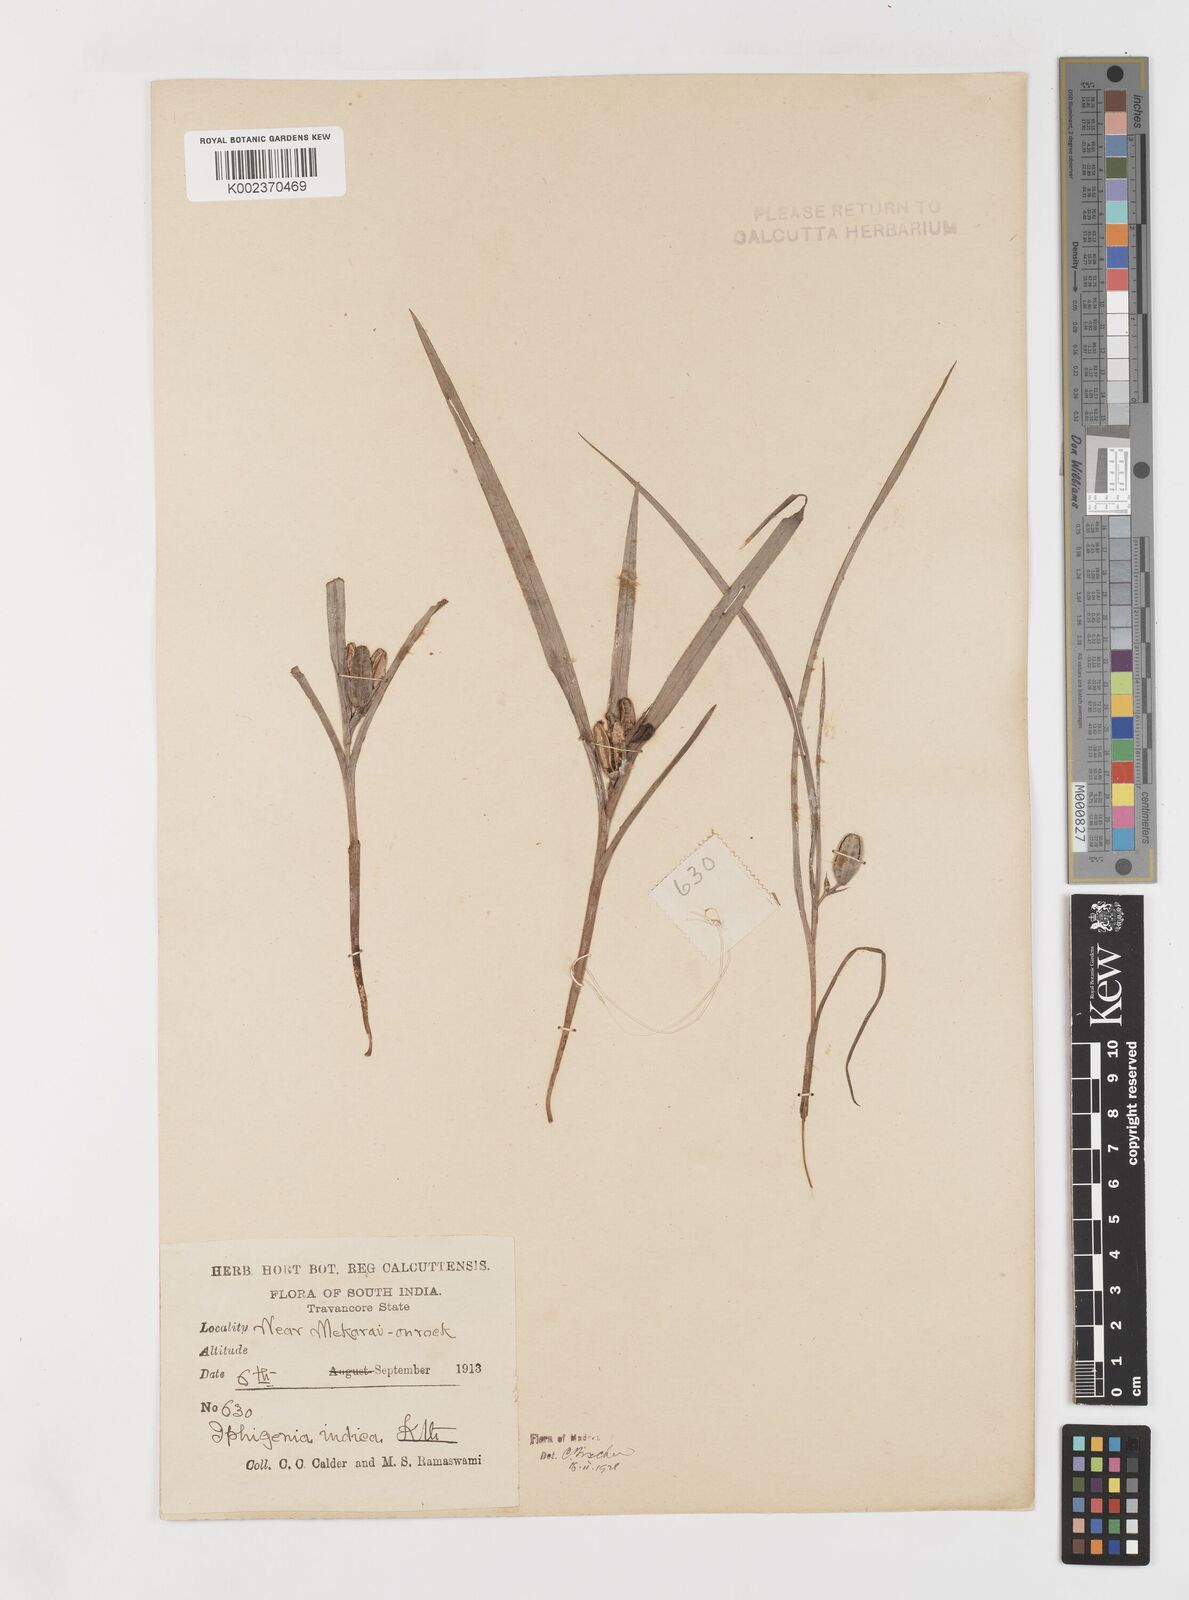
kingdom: Plantae
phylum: Tracheophyta
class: Liliopsida
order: Liliales
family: Colchicaceae
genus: Iphigenia
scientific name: Iphigenia indica
